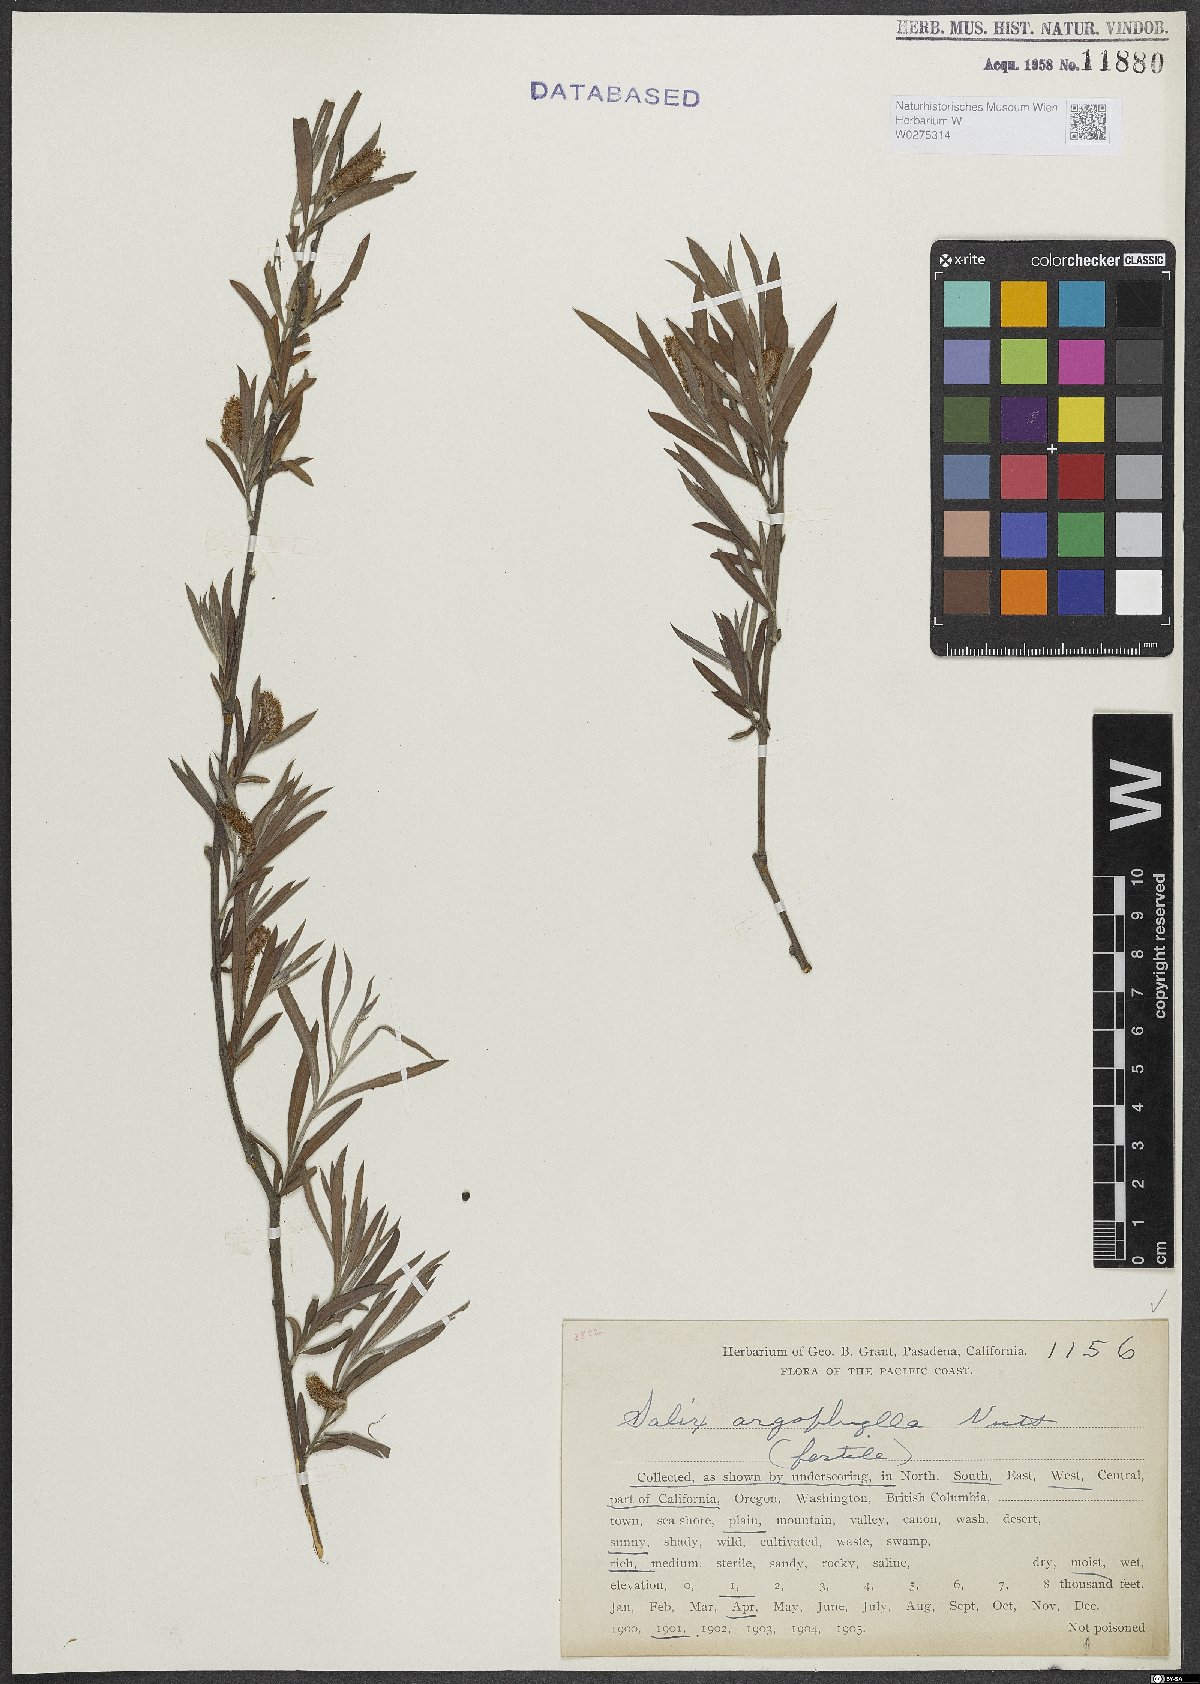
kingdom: Plantae
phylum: Tracheophyta
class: Magnoliopsida
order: Malpighiales
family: Salicaceae
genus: Salix
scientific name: Salix exigua
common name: Coyote willow
